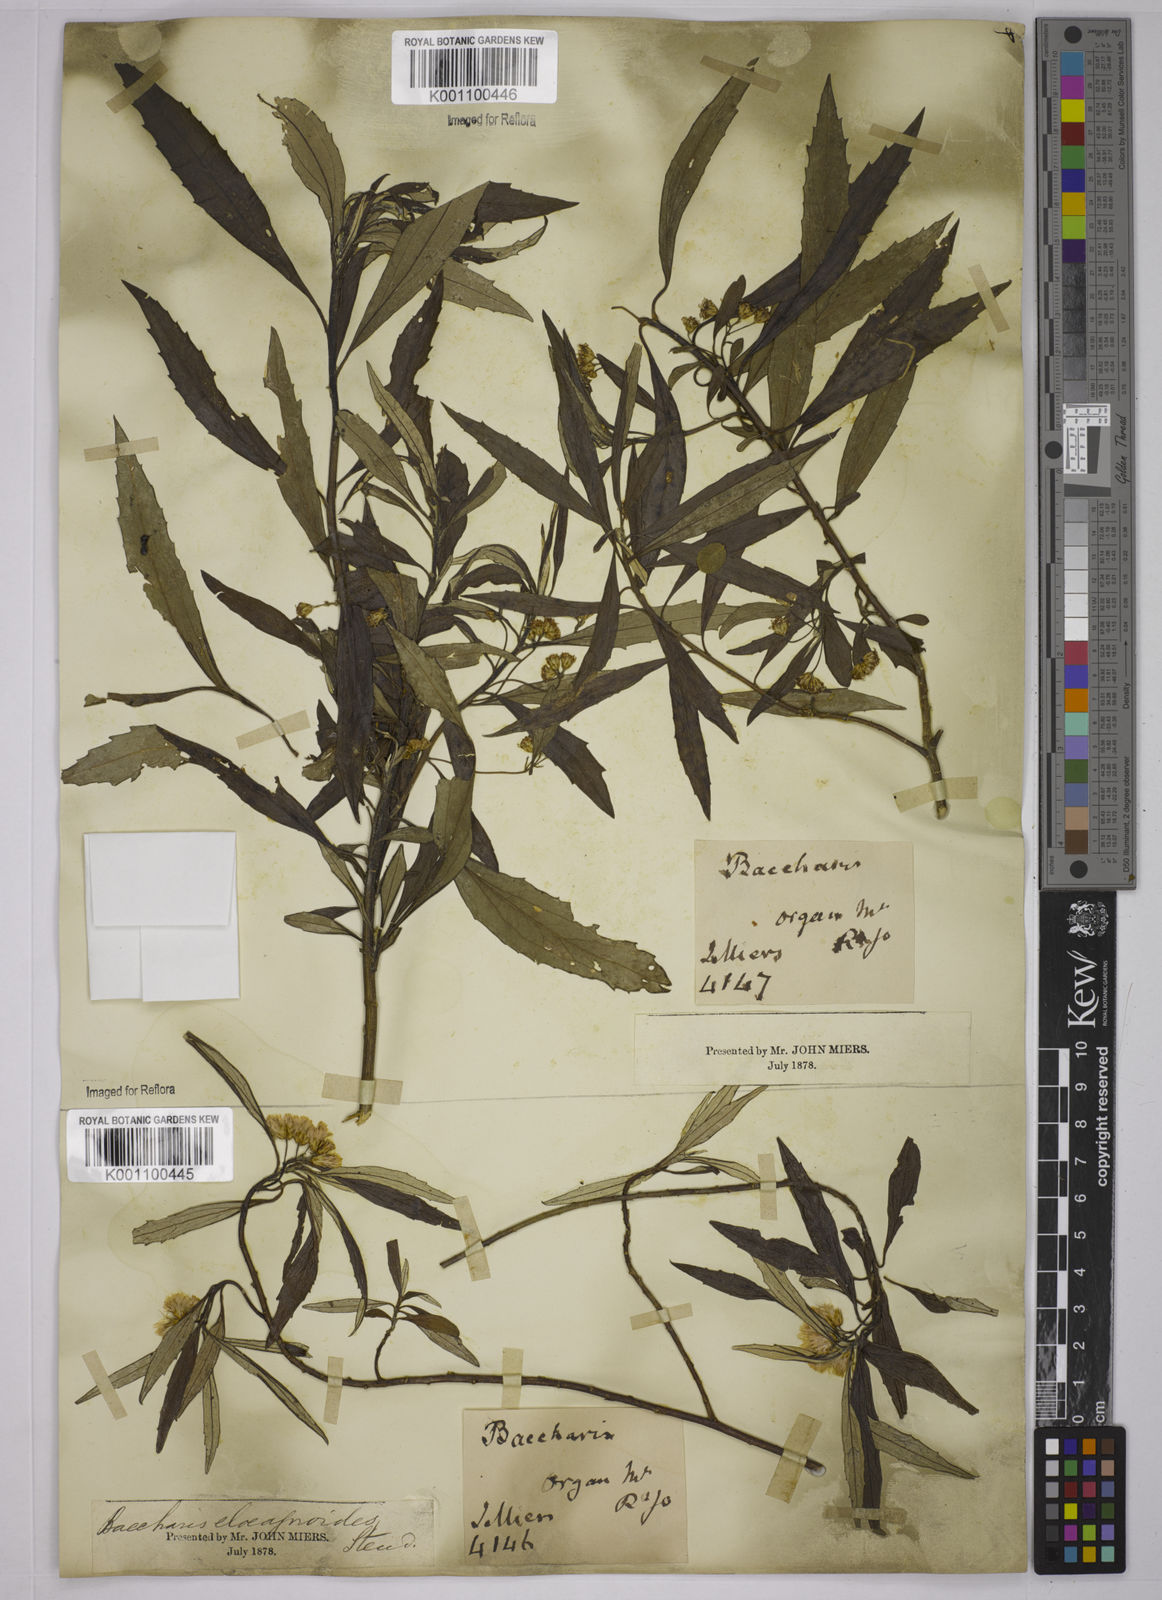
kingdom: Plantae
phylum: Tracheophyta
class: Magnoliopsida
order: Asterales
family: Asteraceae
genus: Baccharis
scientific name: Baccharis
